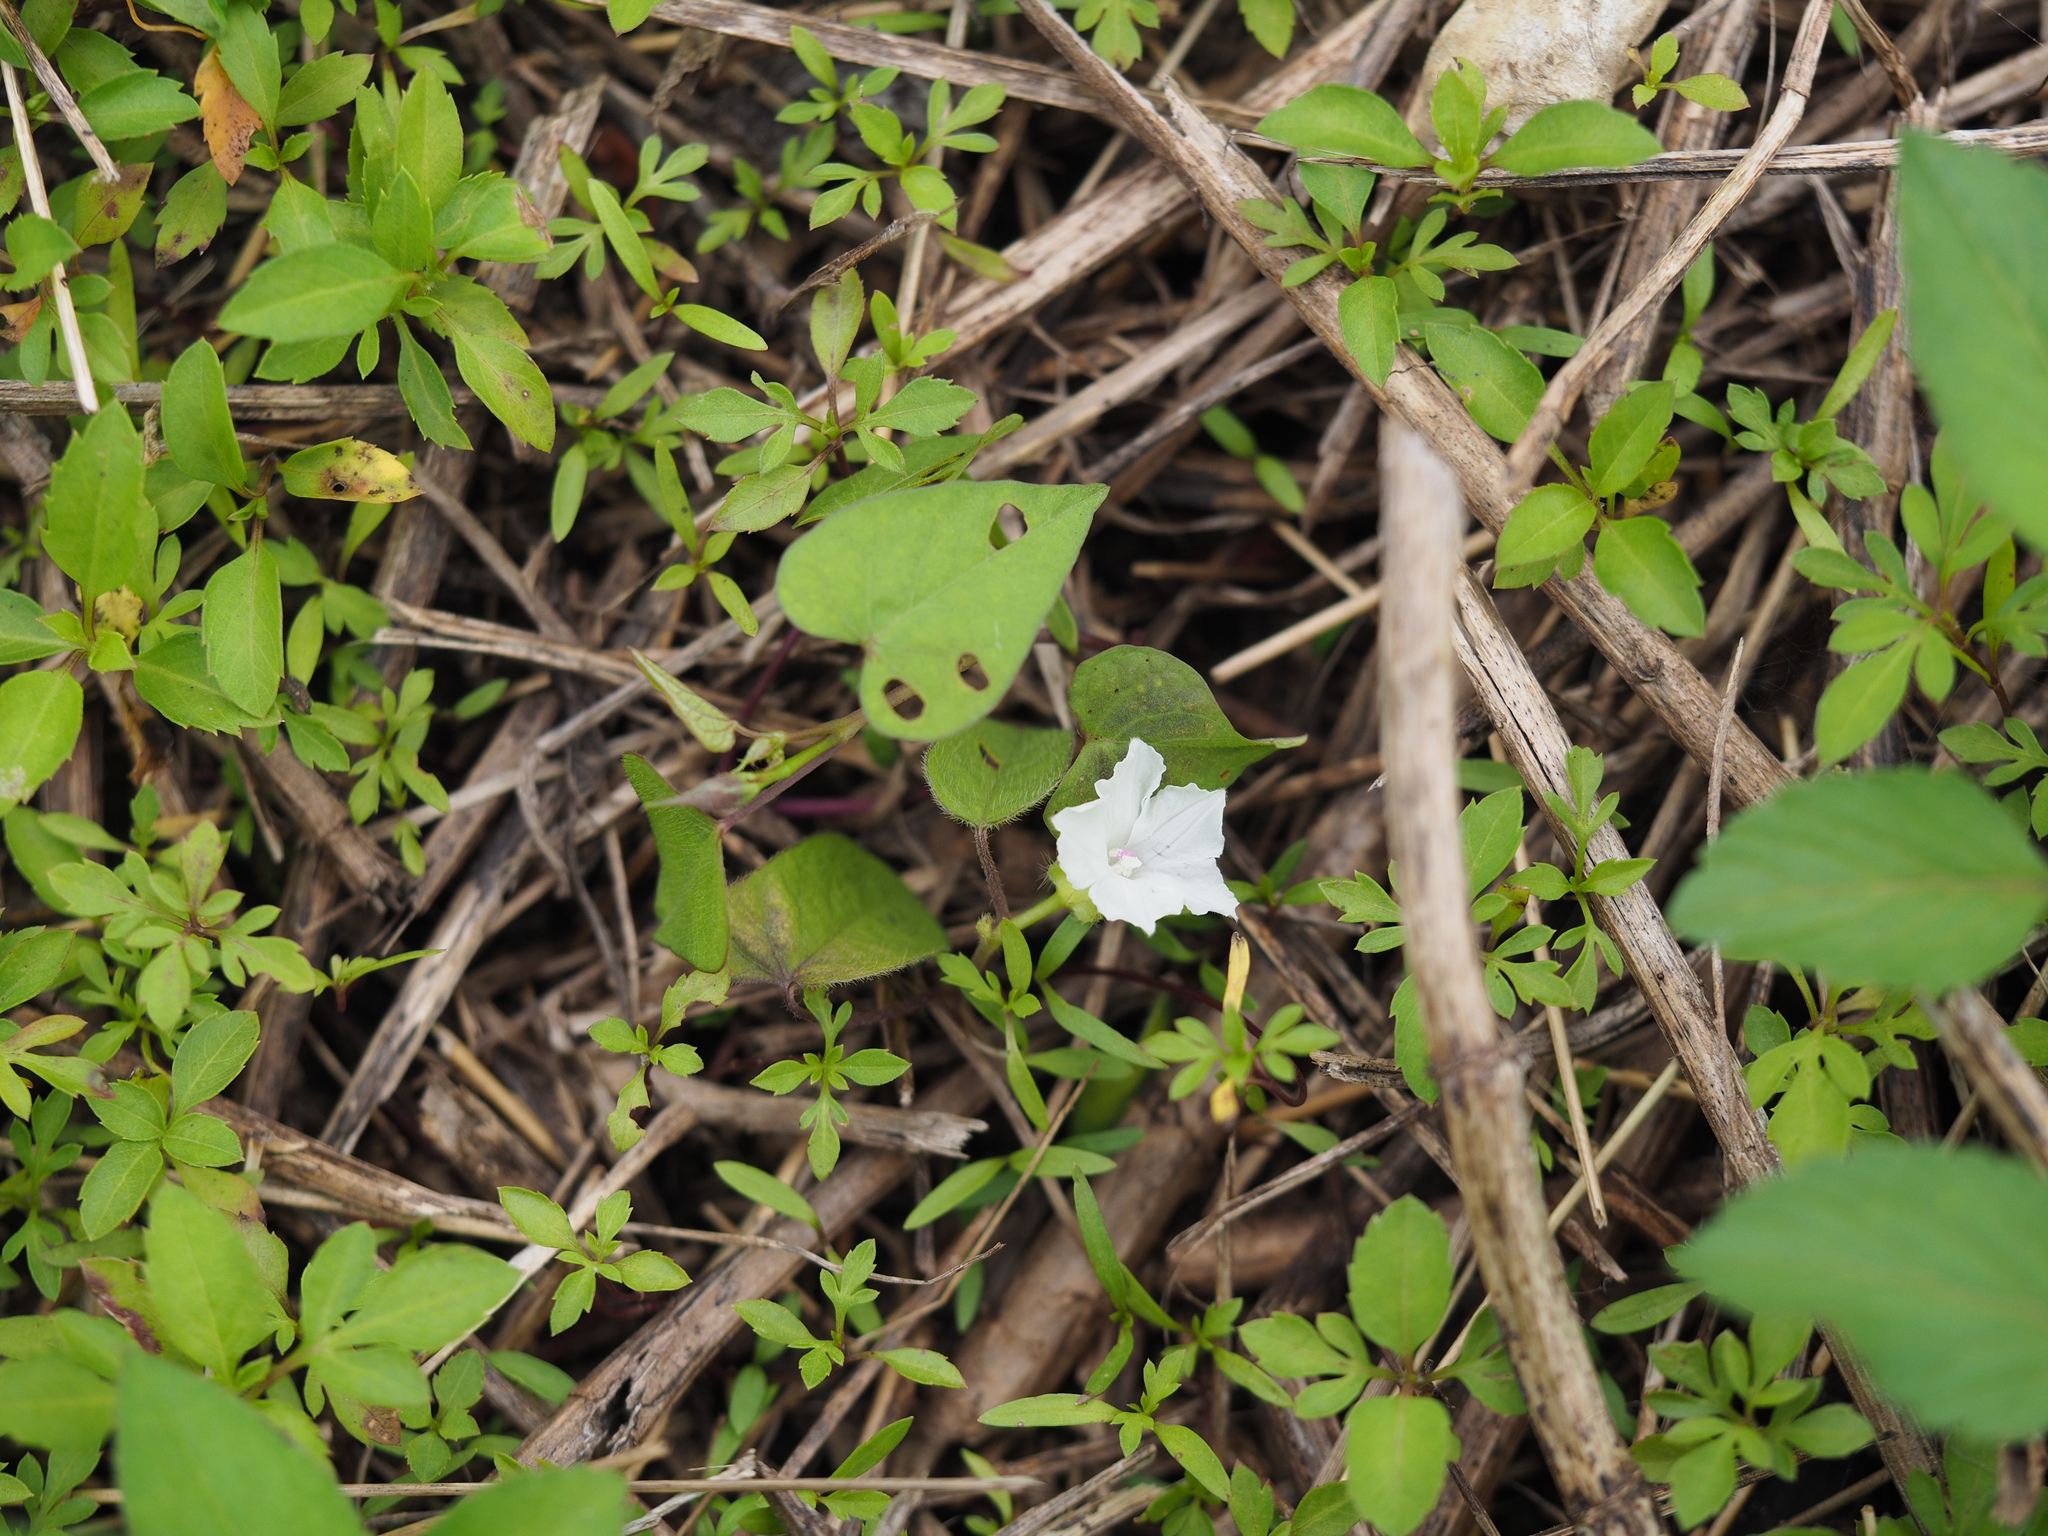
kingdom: Plantae
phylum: Tracheophyta
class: Magnoliopsida
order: Solanales
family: Convolvulaceae
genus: Ipomoea
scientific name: Ipomoea biflora
